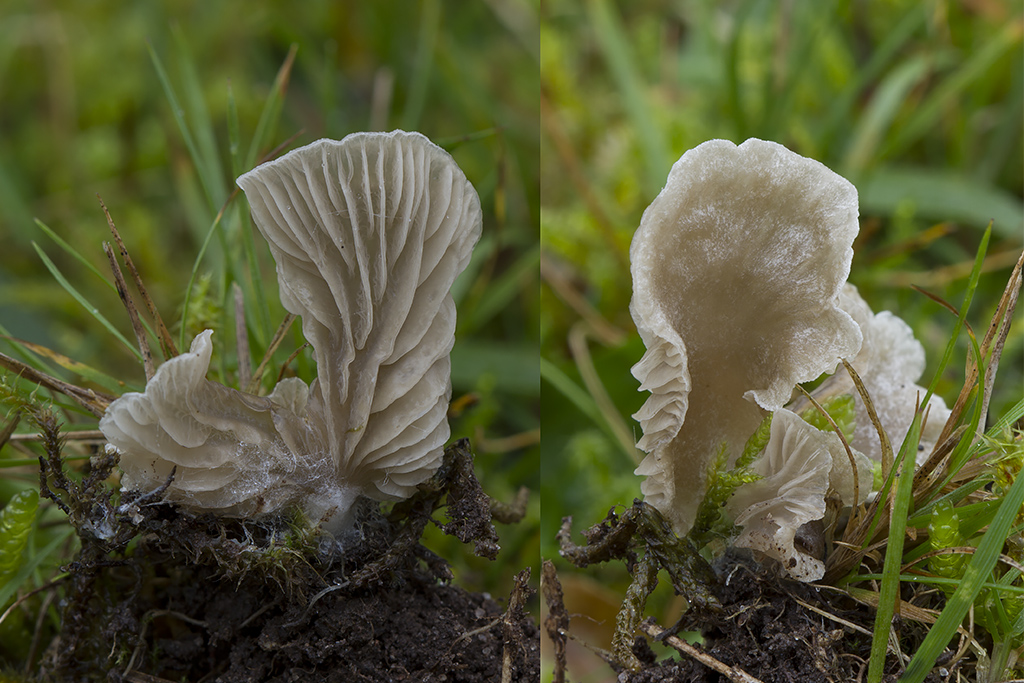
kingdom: Fungi
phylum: Basidiomycota
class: Agaricomycetes
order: Agaricales
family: Hygrophoraceae
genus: Arrhenia
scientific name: Arrhenia glauca
